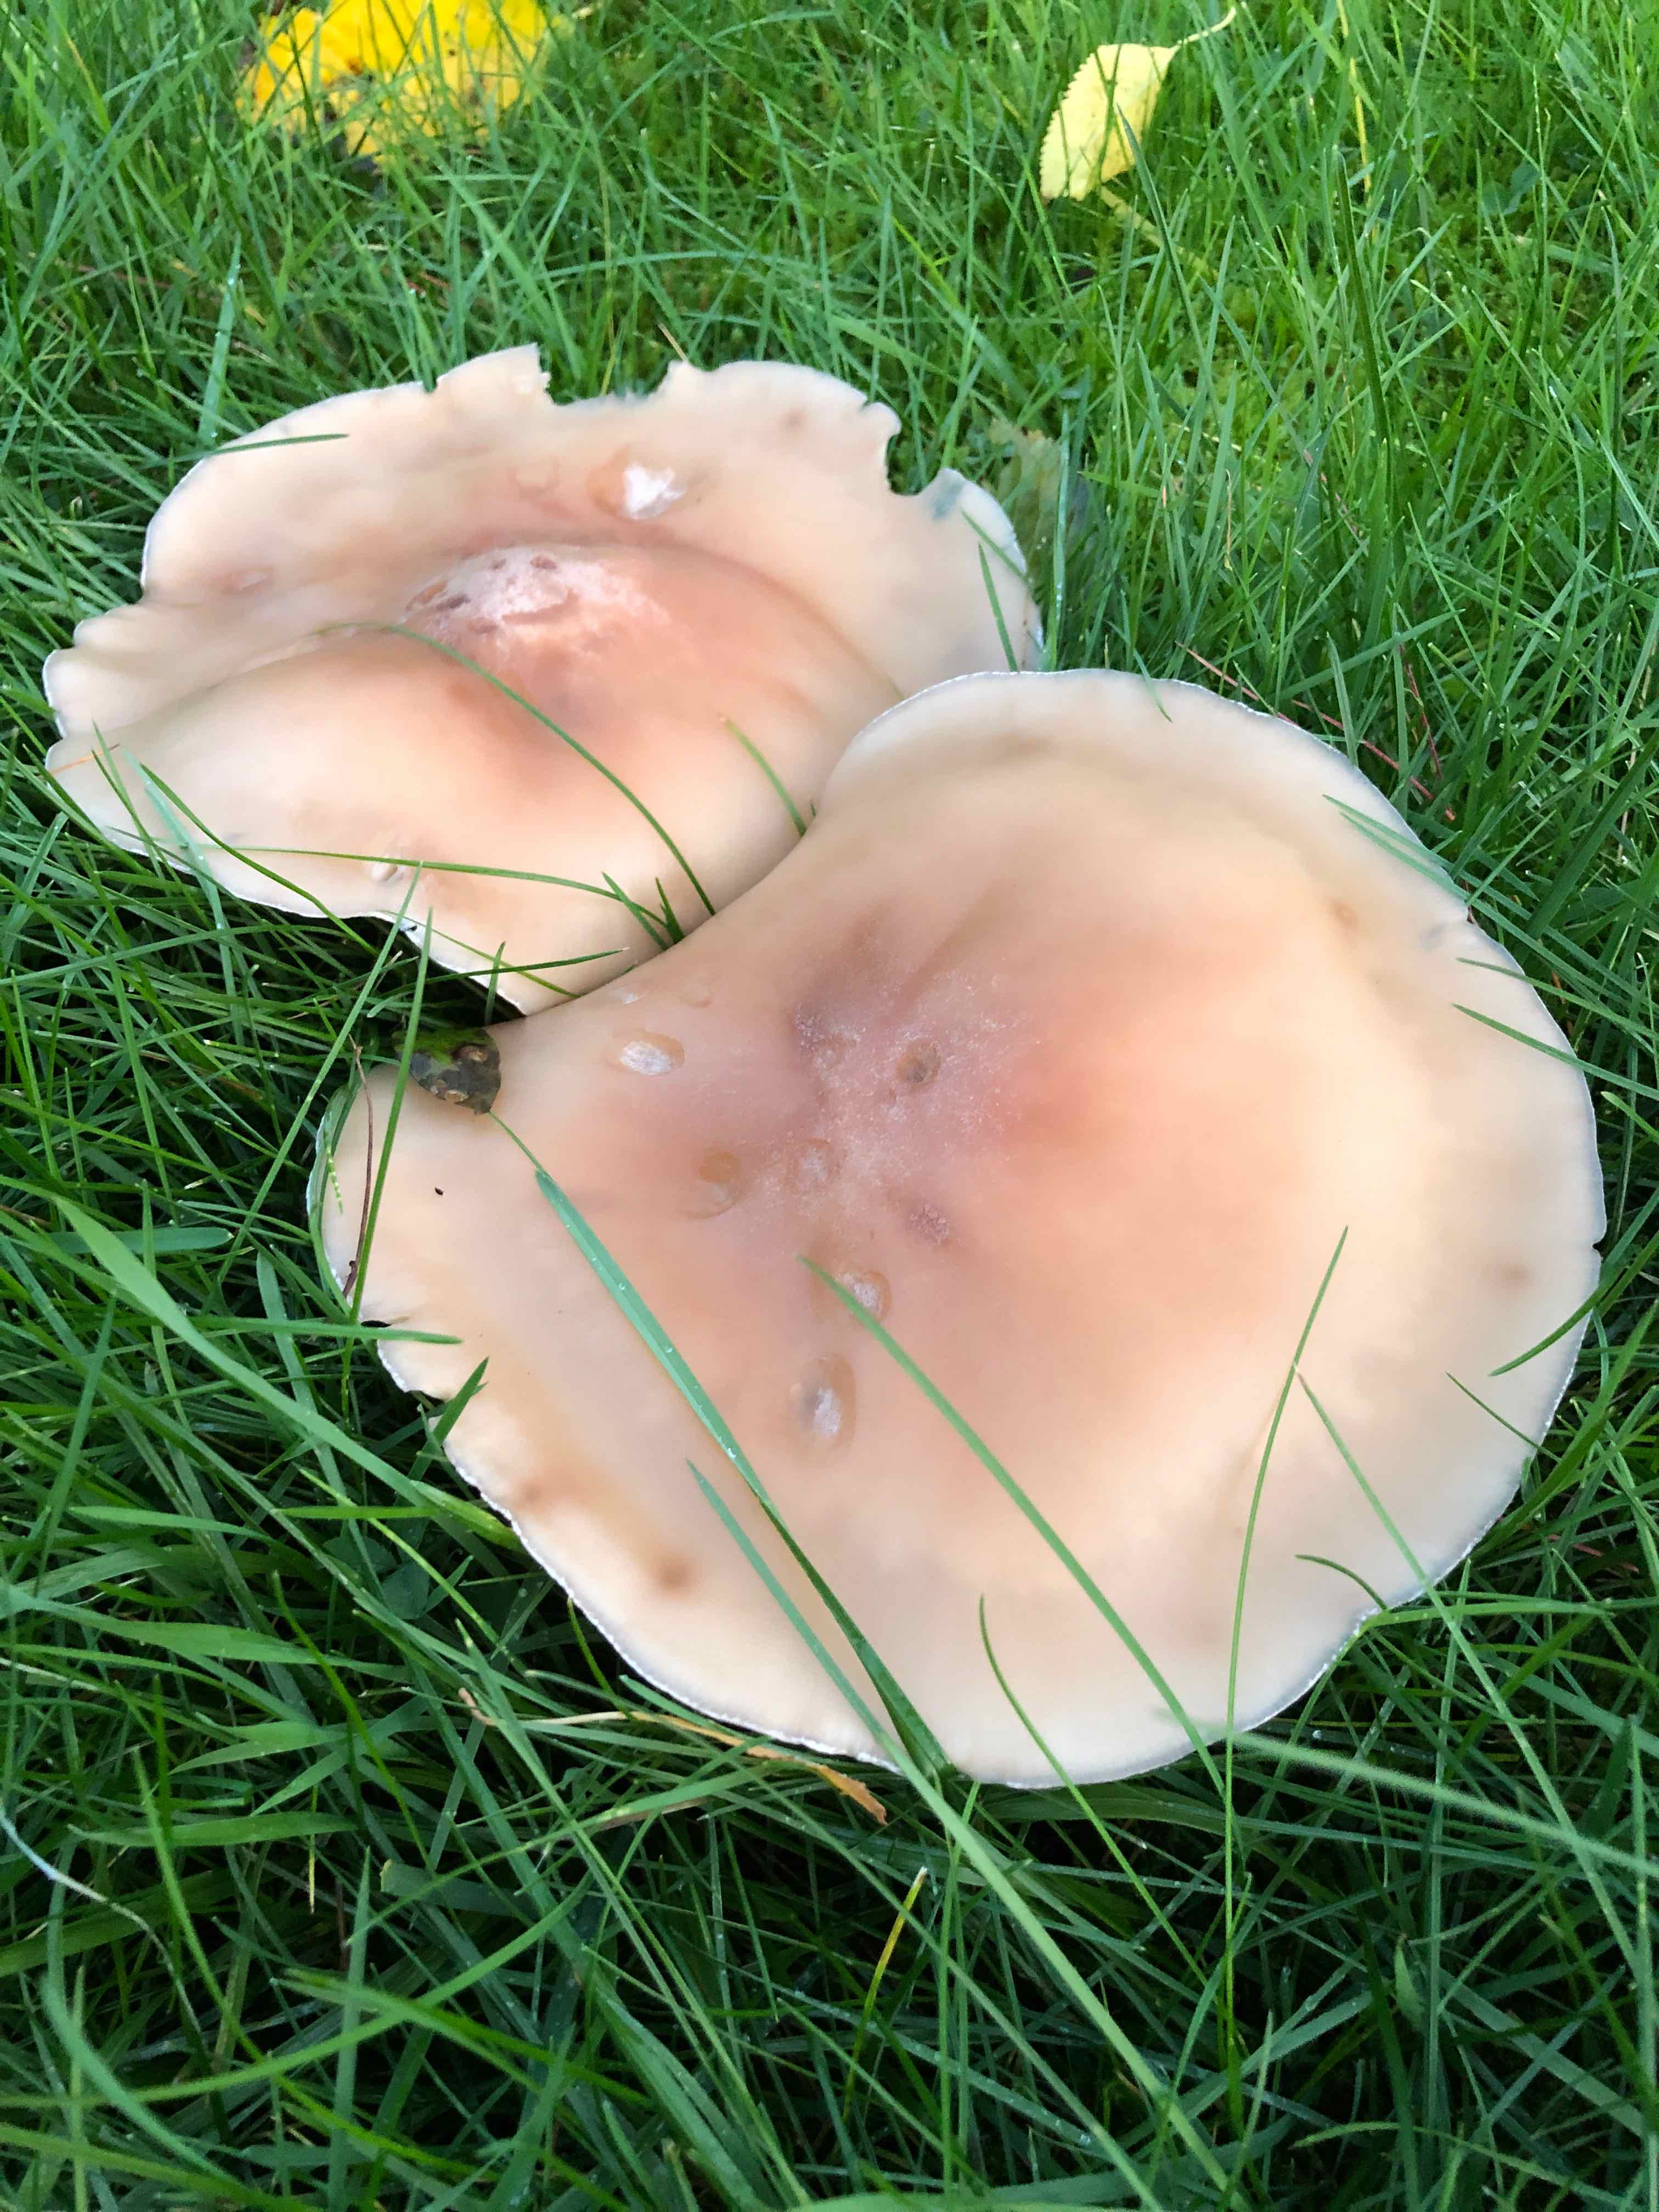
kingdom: Fungi
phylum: Basidiomycota
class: Agaricomycetes
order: Agaricales
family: Tricholomataceae
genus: Lepista
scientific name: Lepista
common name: hekseringshat
